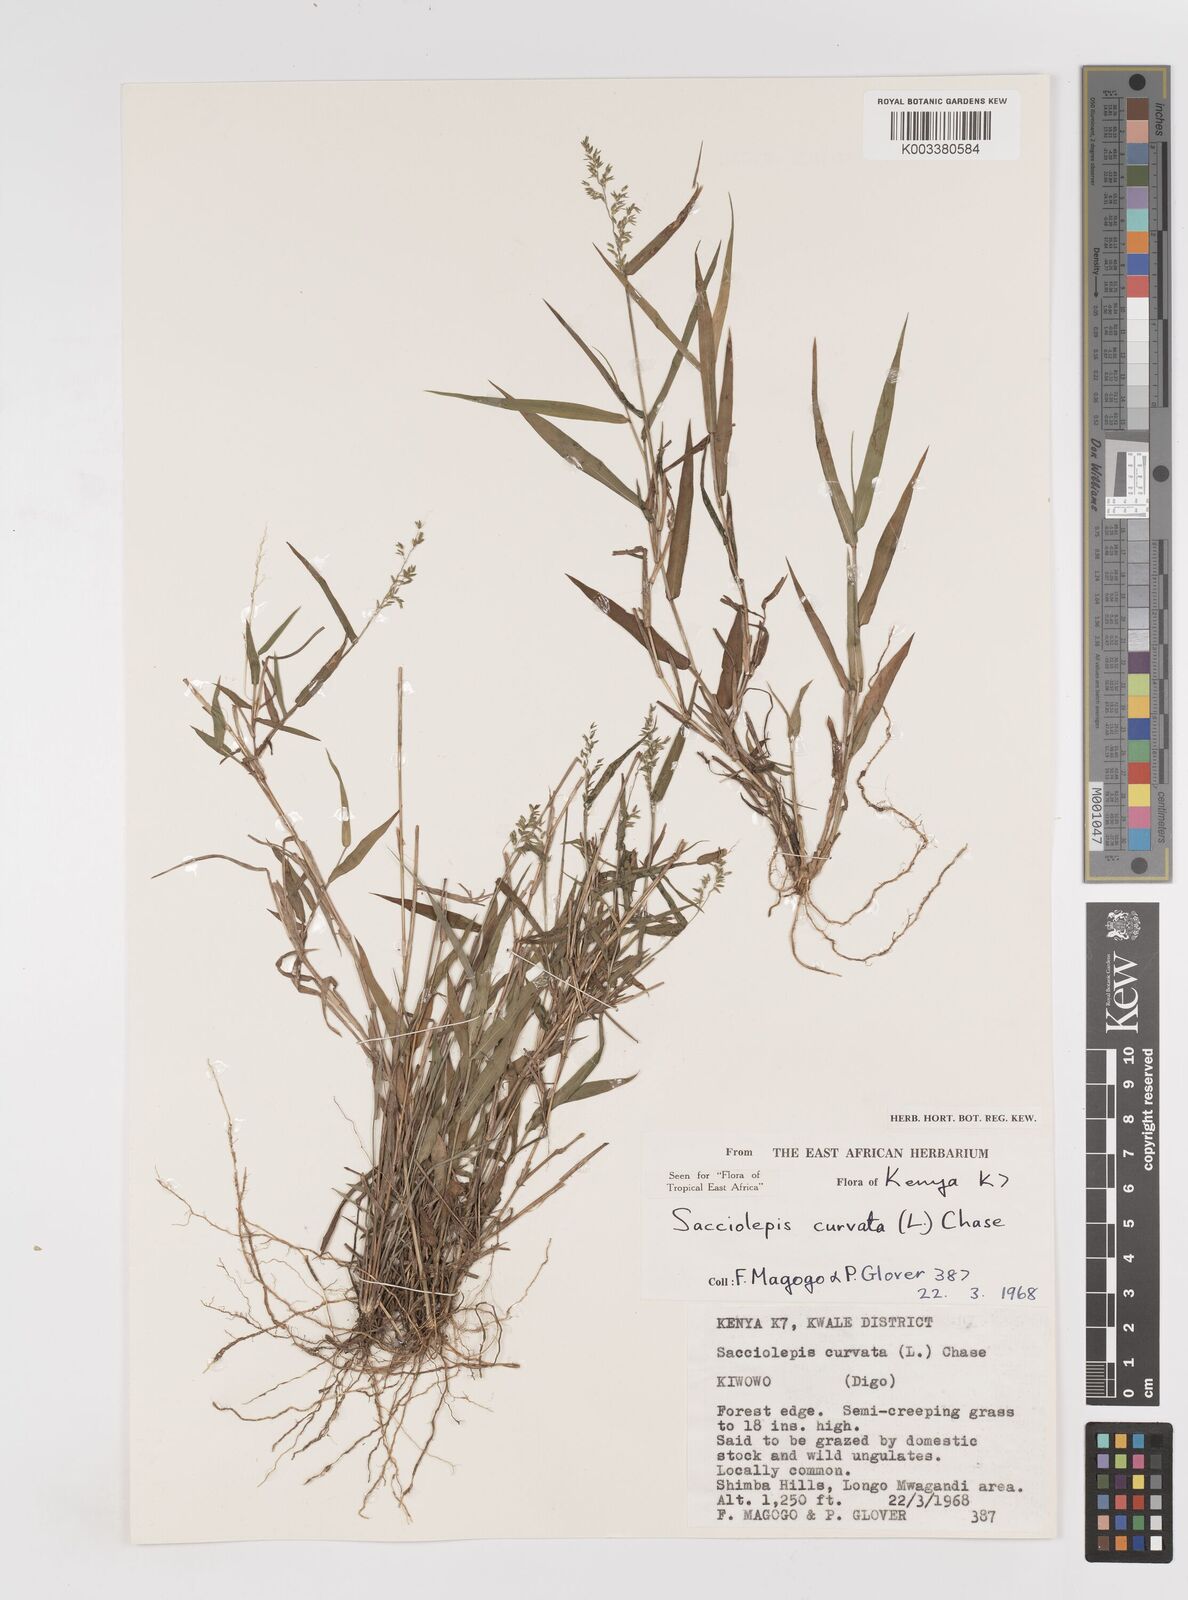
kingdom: Plantae
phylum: Tracheophyta
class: Liliopsida
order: Poales
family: Poaceae
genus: Sacciolepis
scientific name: Sacciolepis curvata
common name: Forest hood grass
